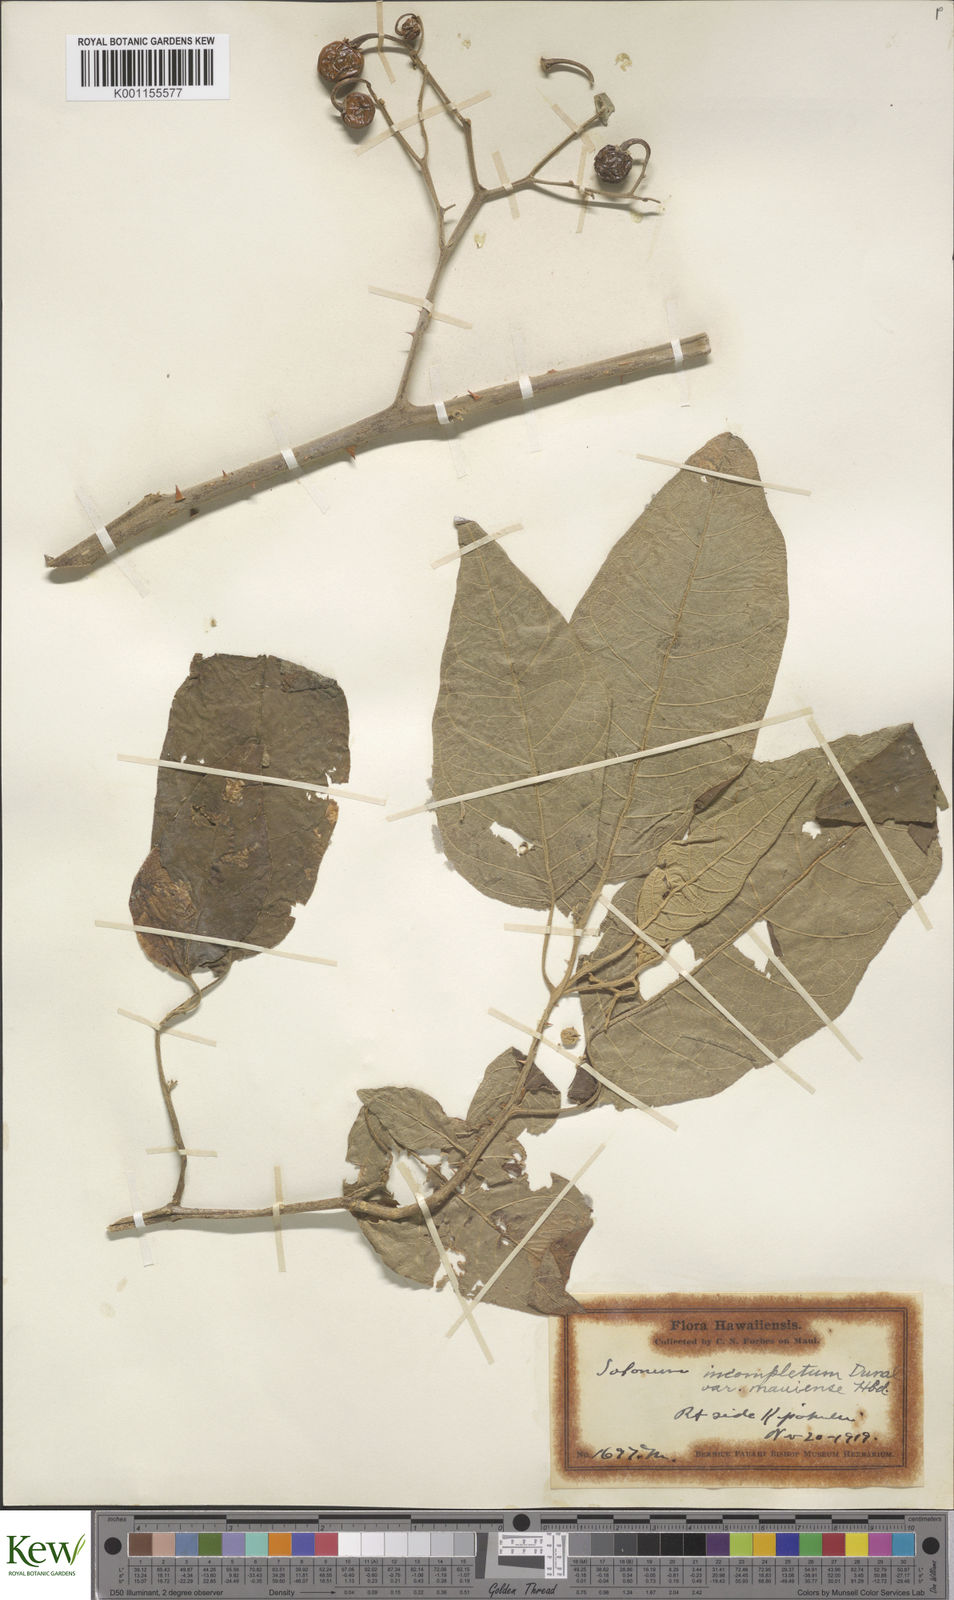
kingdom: Plantae
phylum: Tracheophyta
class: Magnoliopsida
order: Solanales
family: Solanaceae
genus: Solanum
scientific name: Solanum incompletum
